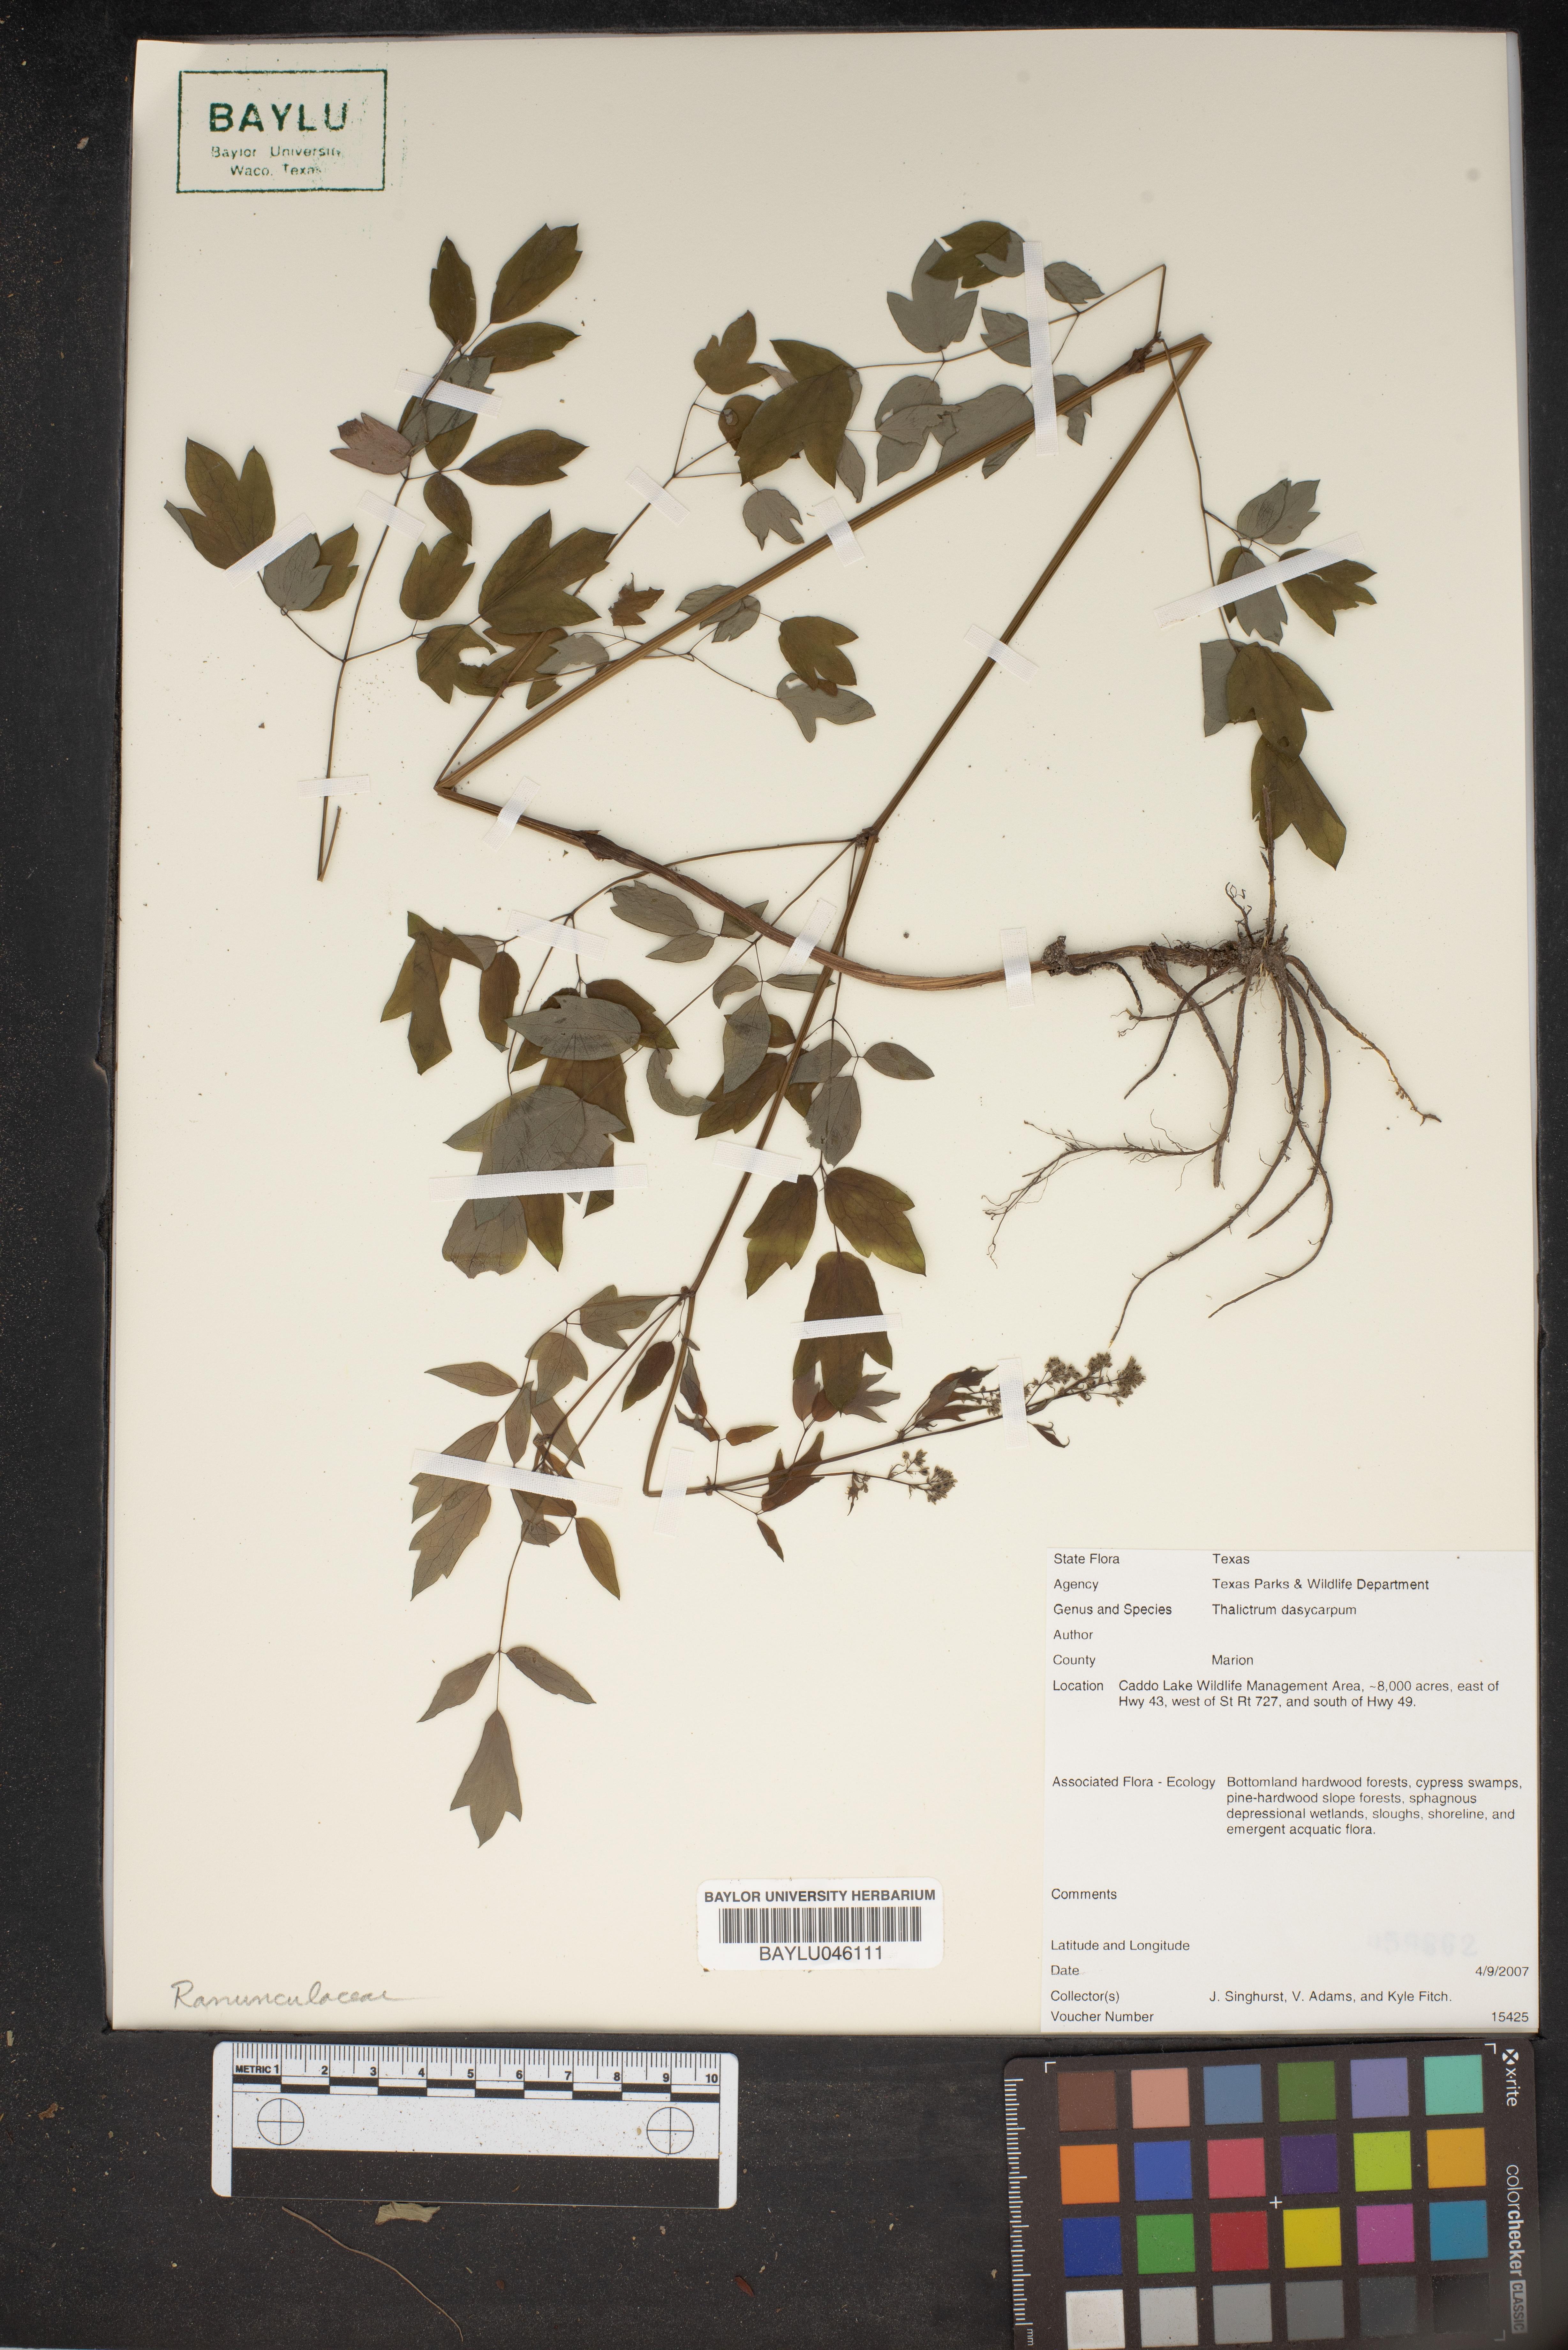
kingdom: Plantae
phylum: Tracheophyta
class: Magnoliopsida
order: Ranunculales
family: Ranunculaceae
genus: Thalictrum
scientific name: Thalictrum dasycarpum
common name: Purple meadow-rue
